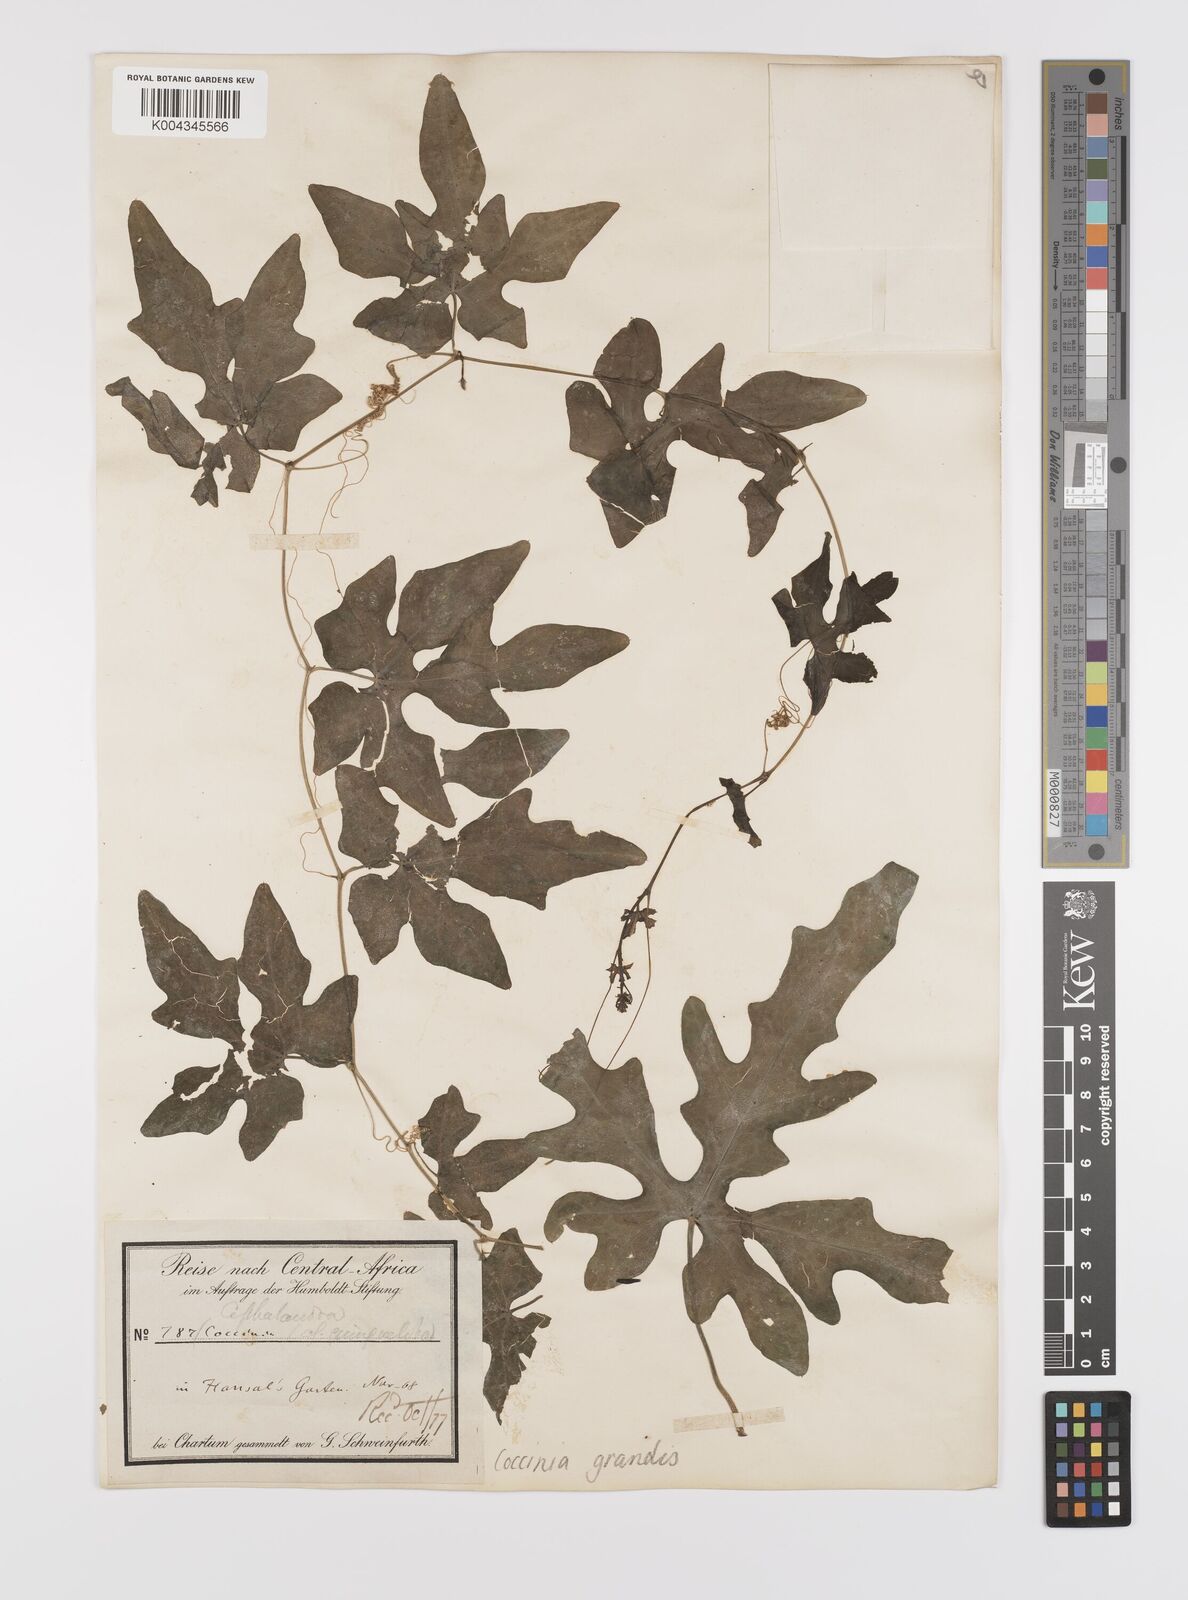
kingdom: Plantae
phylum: Tracheophyta
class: Magnoliopsida
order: Cucurbitales
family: Cucurbitaceae
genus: Coccinia
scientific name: Coccinia grandis
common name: Ivy gourd
